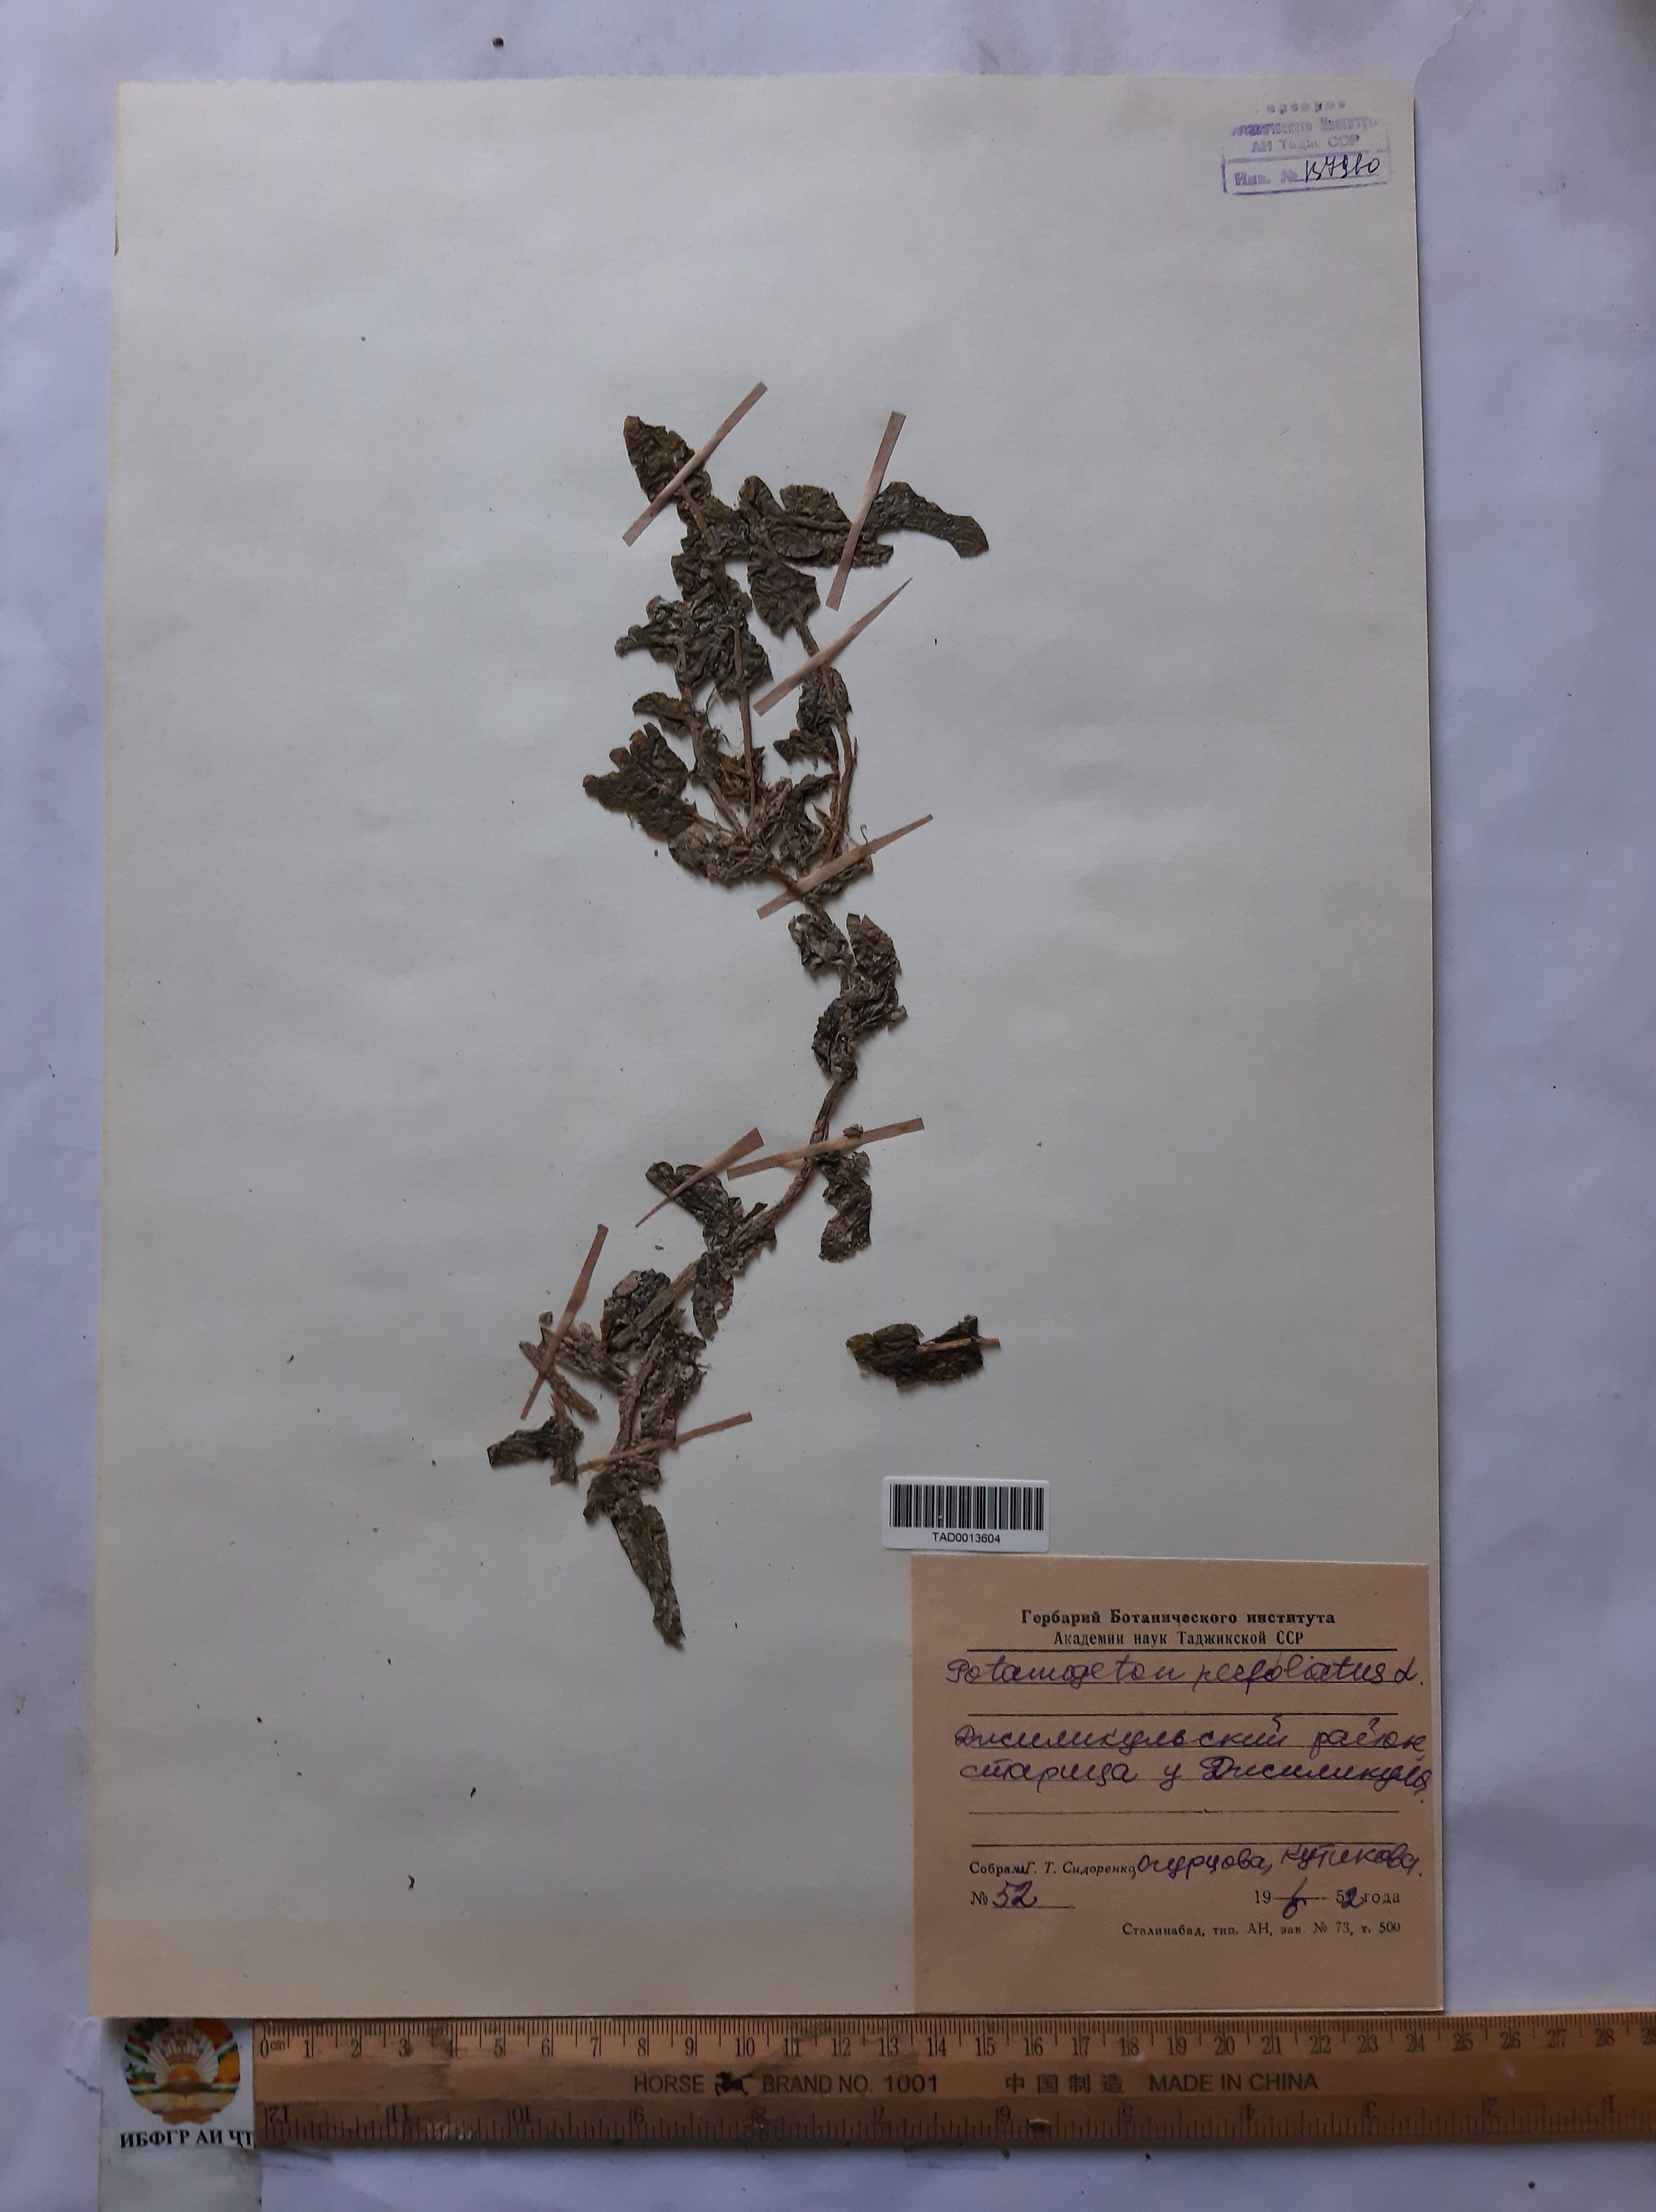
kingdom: Plantae
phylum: Tracheophyta
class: Liliopsida
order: Alismatales
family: Potamogetonaceae
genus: Potamogeton
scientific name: Potamogeton perfoliatus
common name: Perfoliate pondweed
